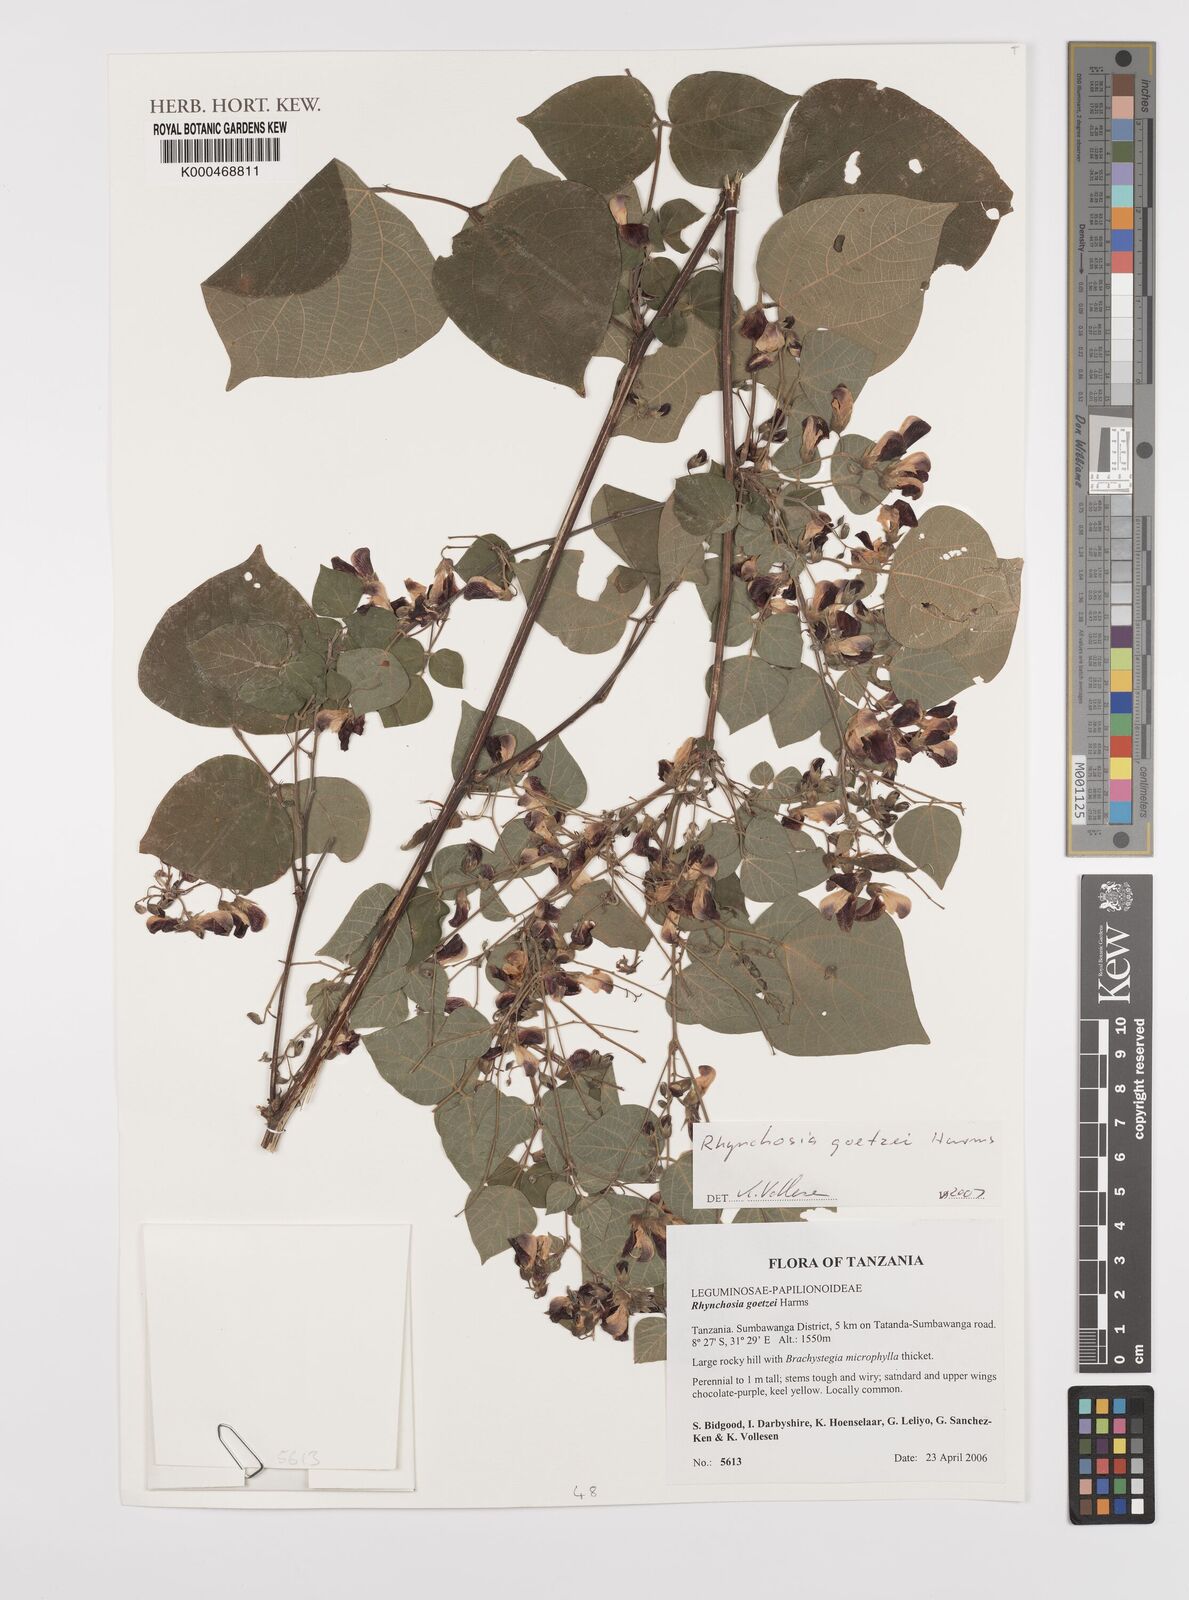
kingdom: Plantae
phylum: Tracheophyta
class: Magnoliopsida
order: Fabales
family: Fabaceae
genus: Rhynchosia
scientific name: Rhynchosia goetzei
